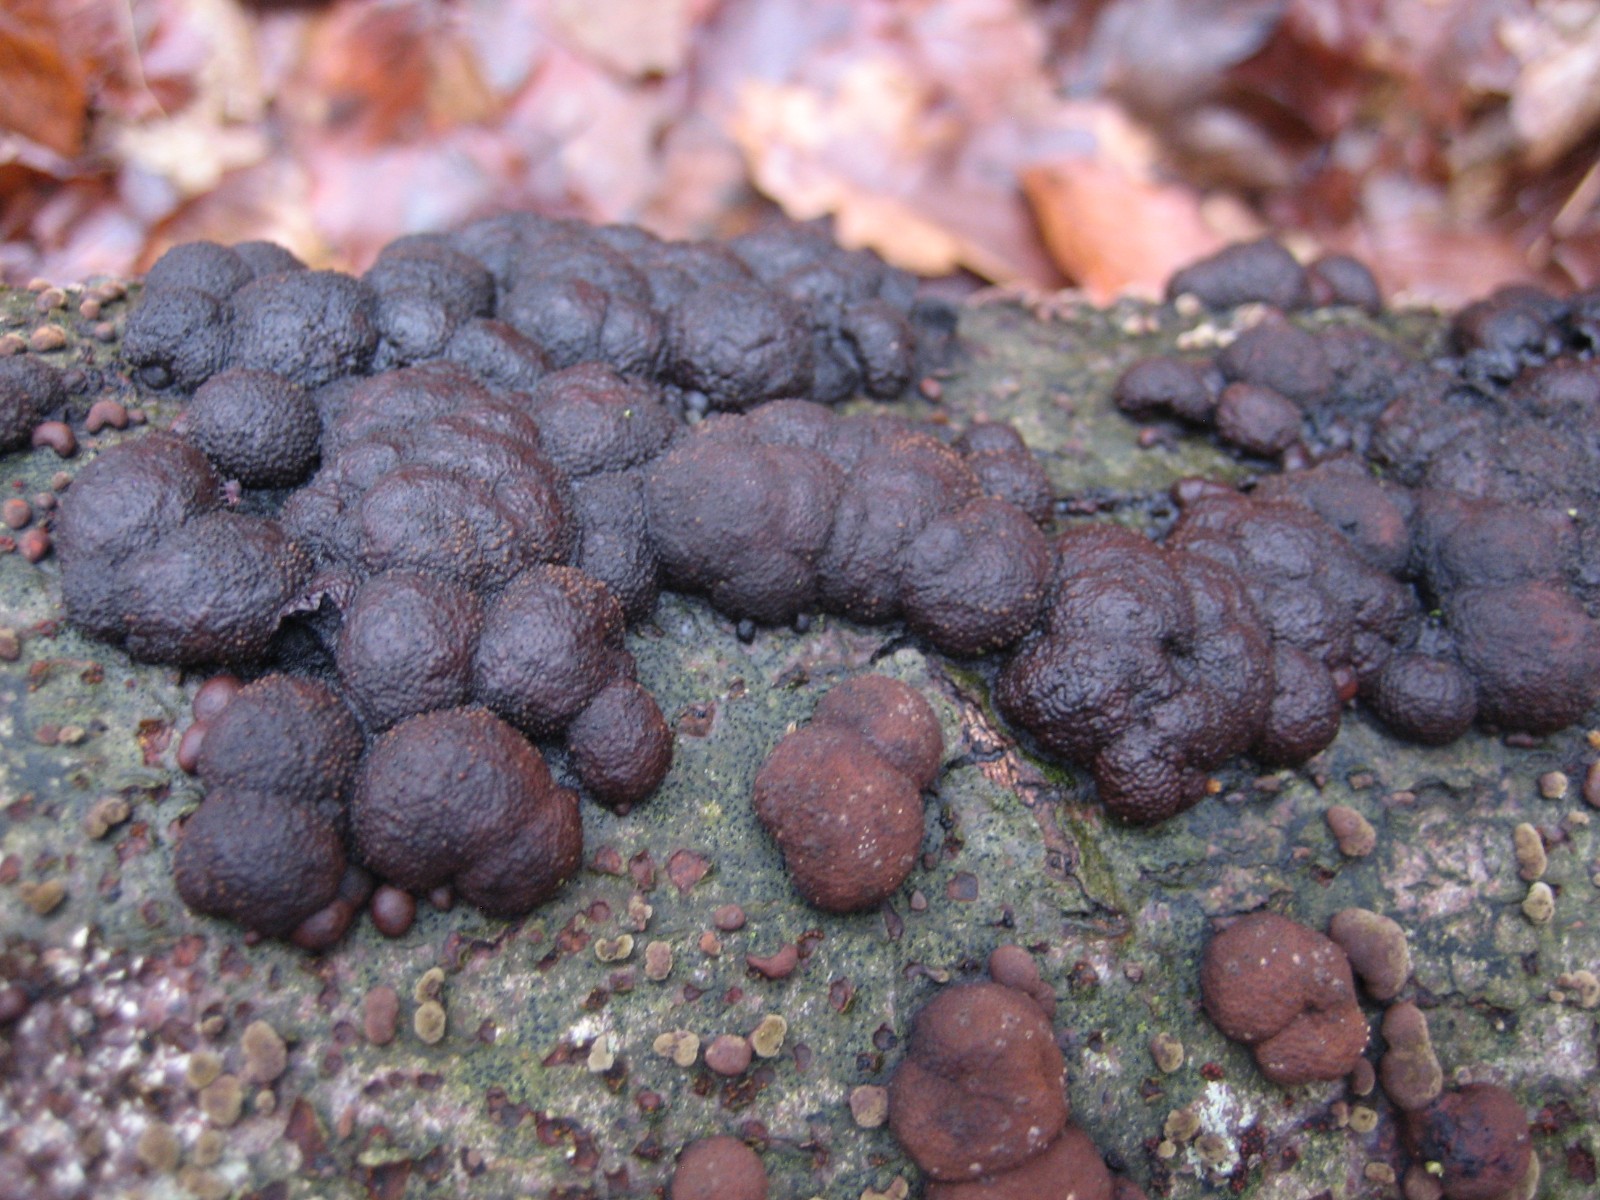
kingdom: Fungi
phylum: Ascomycota
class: Sordariomycetes
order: Xylariales
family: Hypoxylaceae
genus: Hypoxylon
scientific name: Hypoxylon fragiforme
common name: kuljordbær
